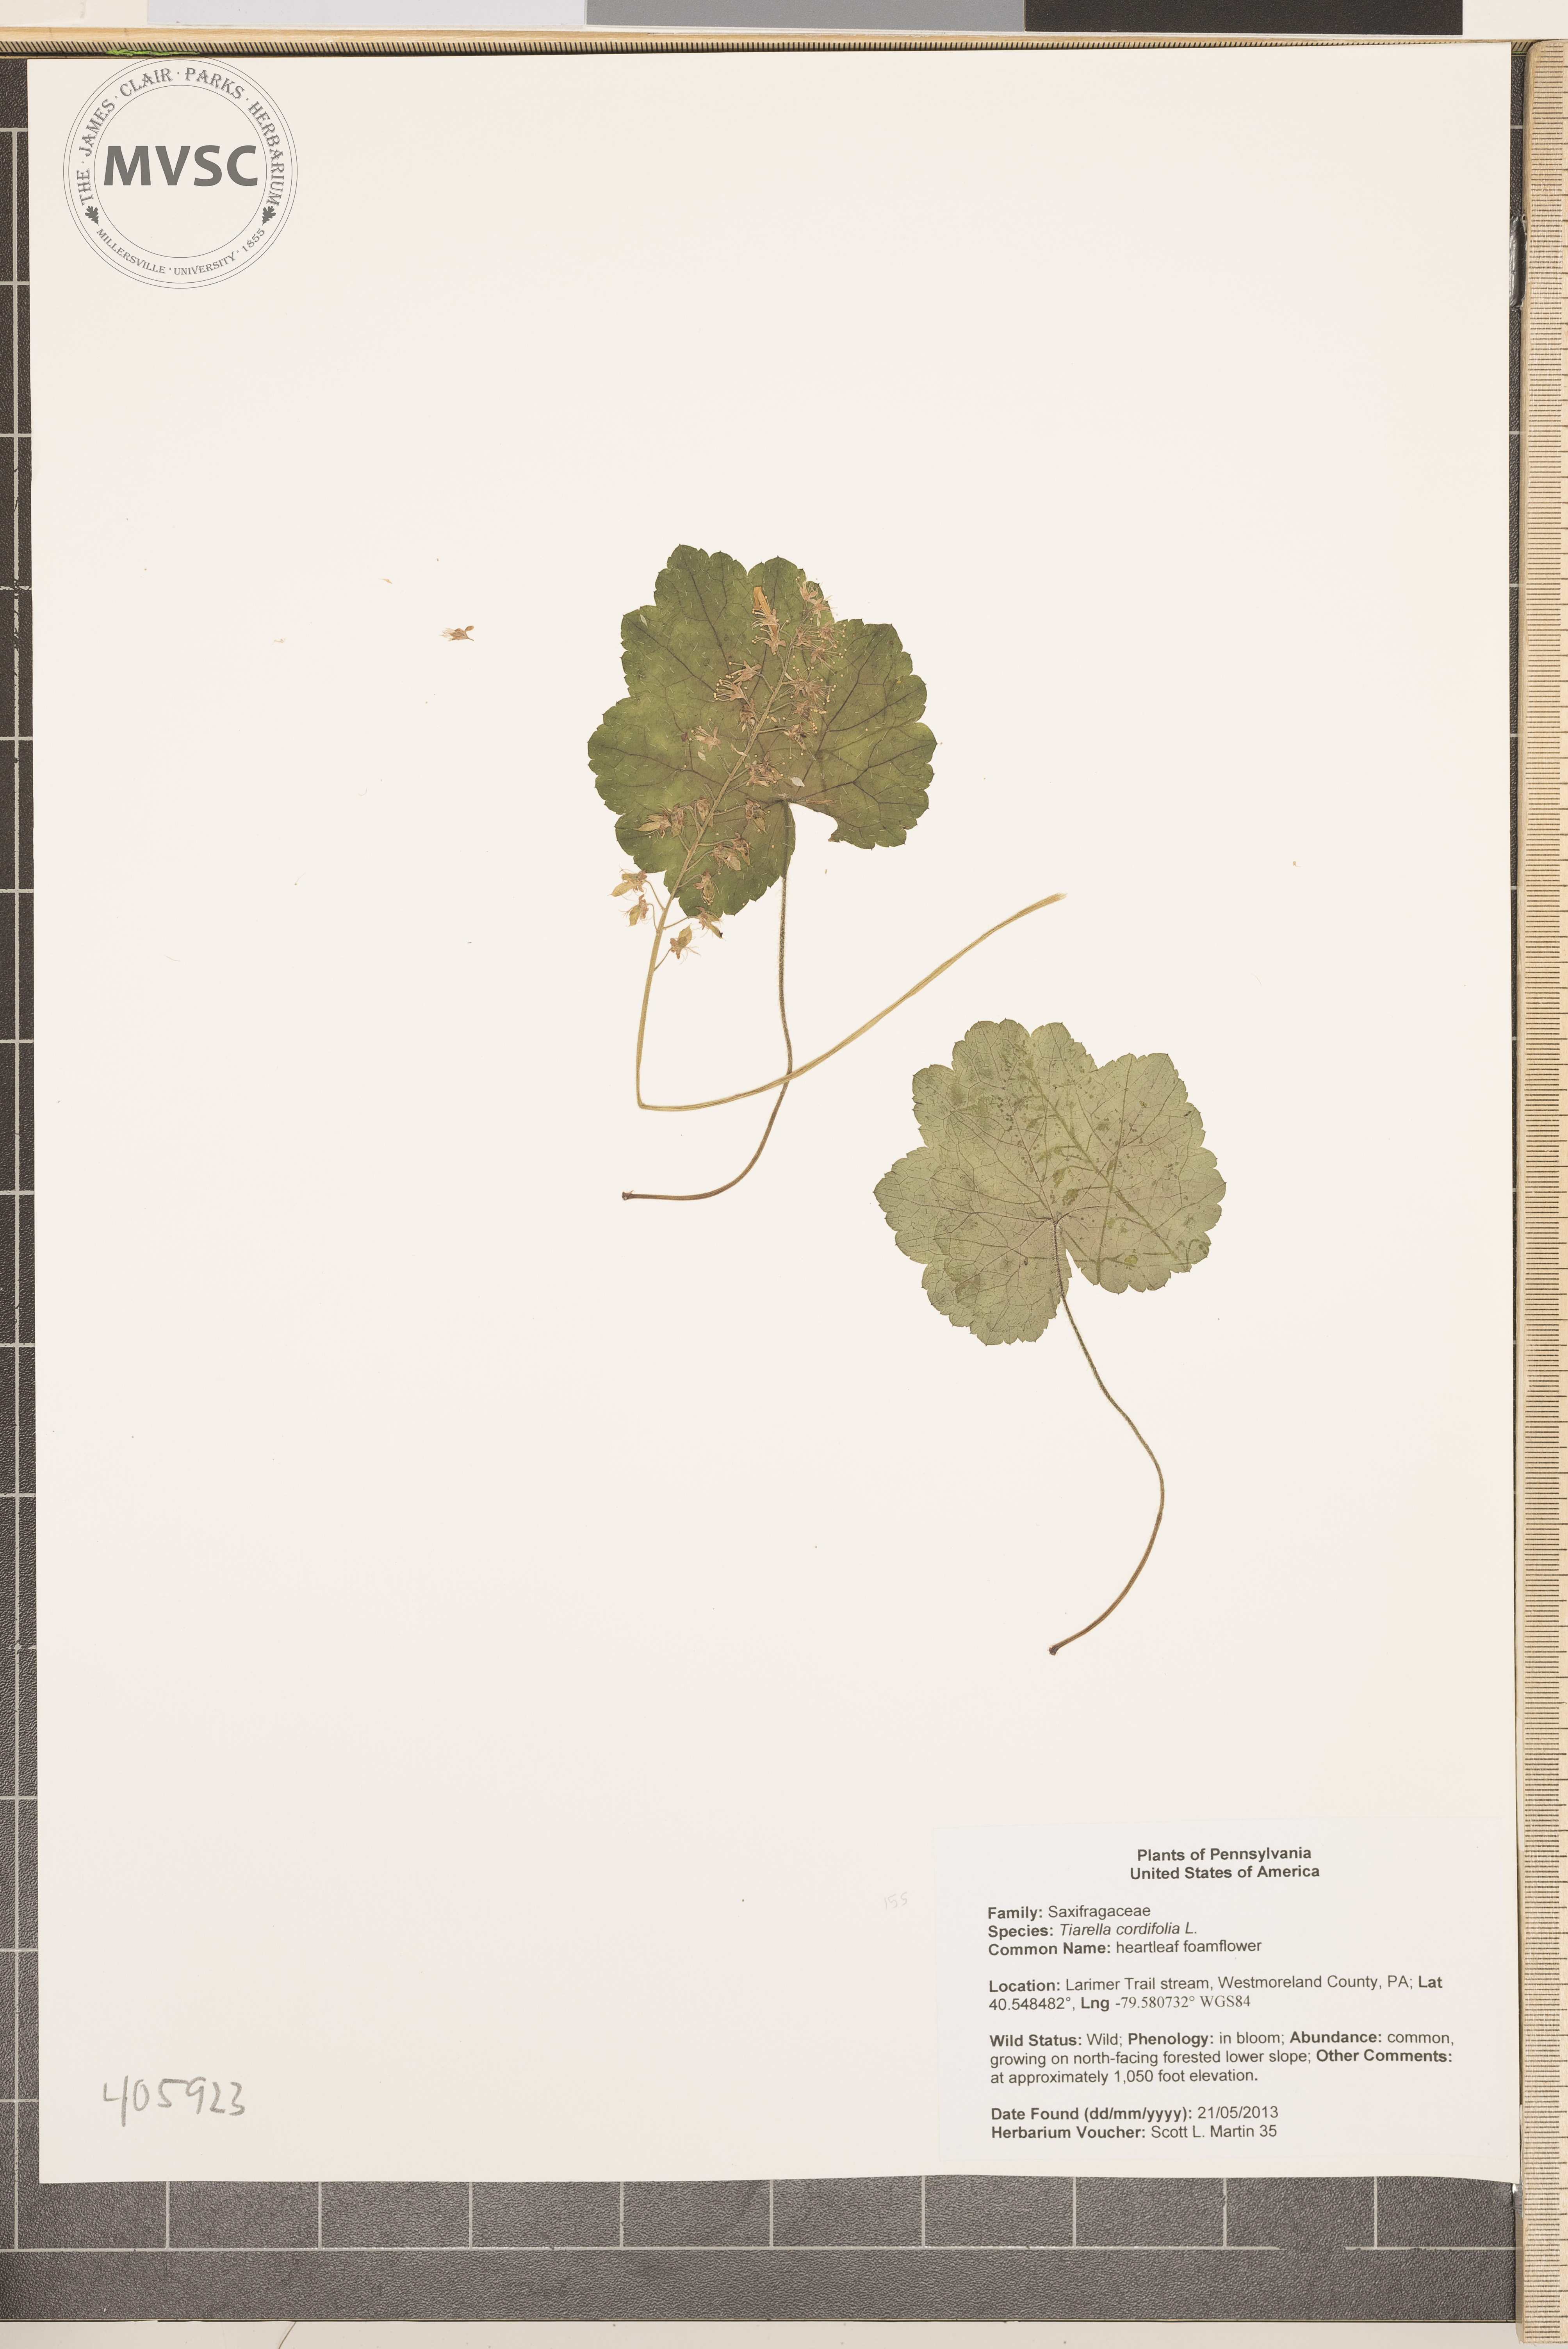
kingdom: Plantae
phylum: Tracheophyta
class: Magnoliopsida
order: Saxifragales
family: Saxifragaceae
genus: Tiarella
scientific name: Tiarella cordifolia
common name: heartleaf foamflower
